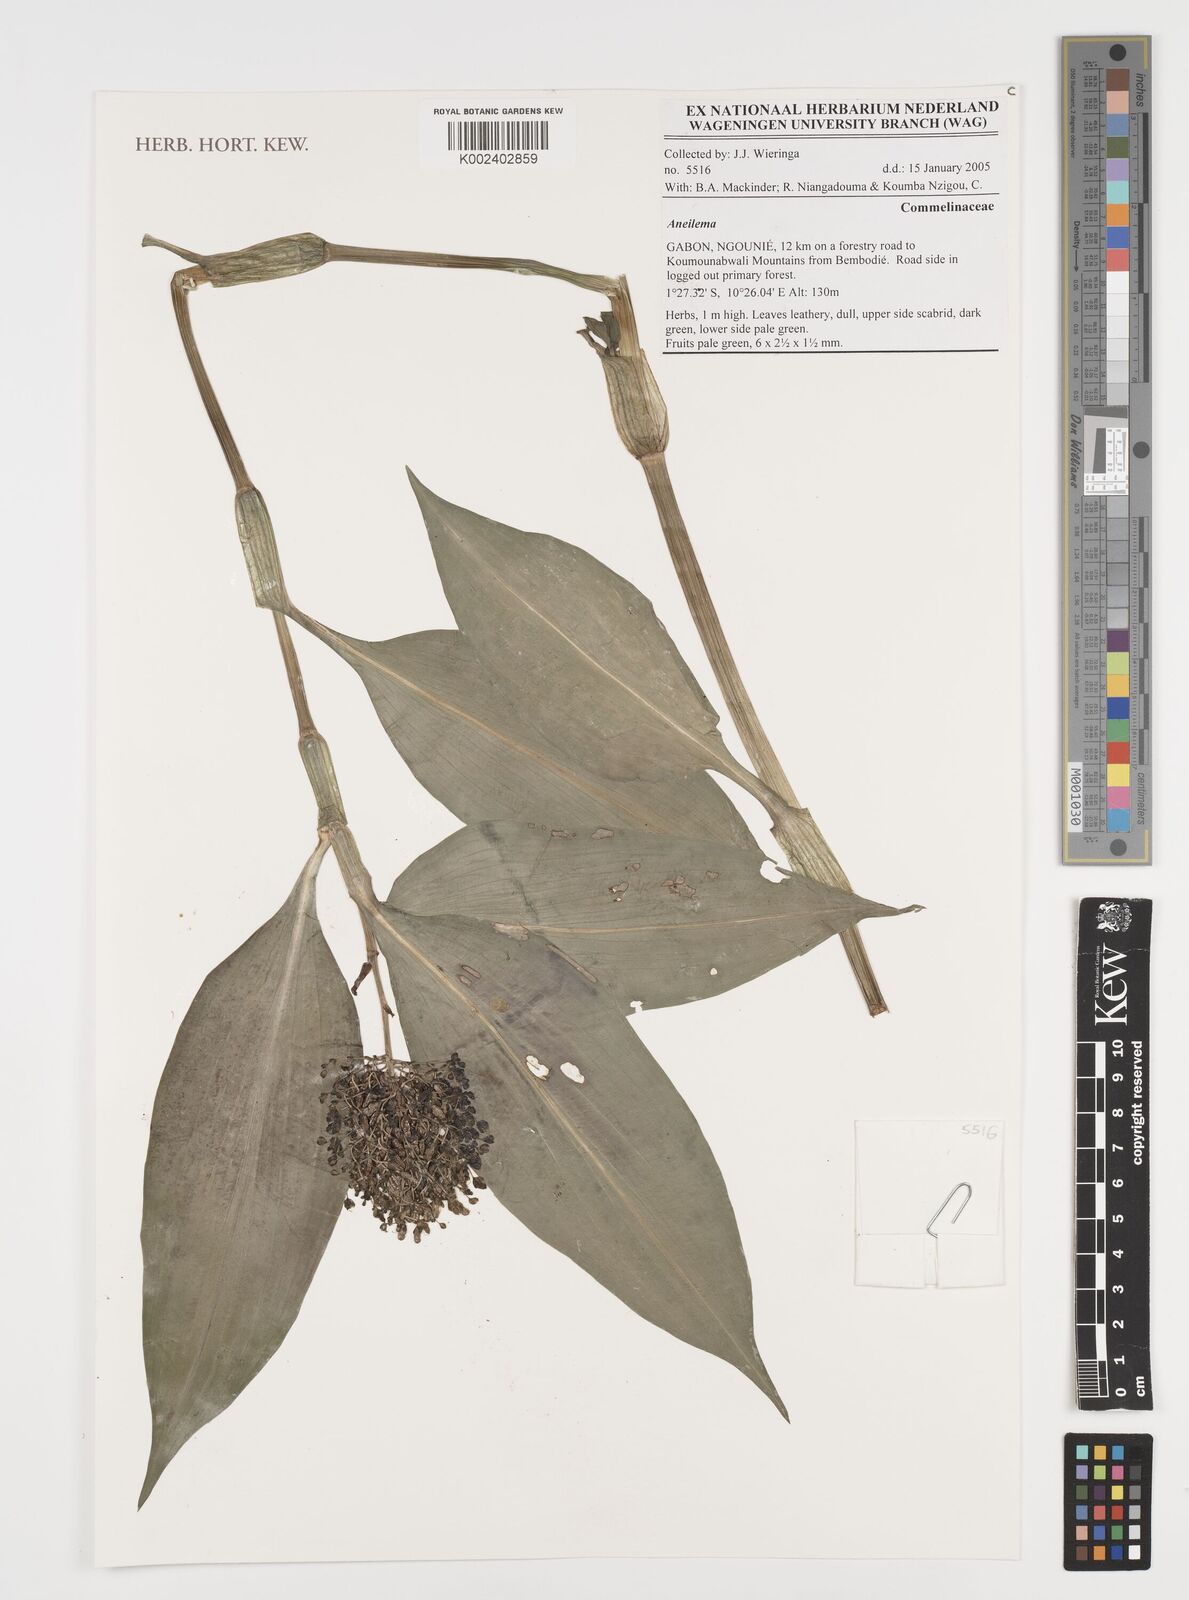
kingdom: Plantae
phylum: Tracheophyta
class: Liliopsida
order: Commelinales
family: Commelinaceae
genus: Aneilema
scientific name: Aneilema
